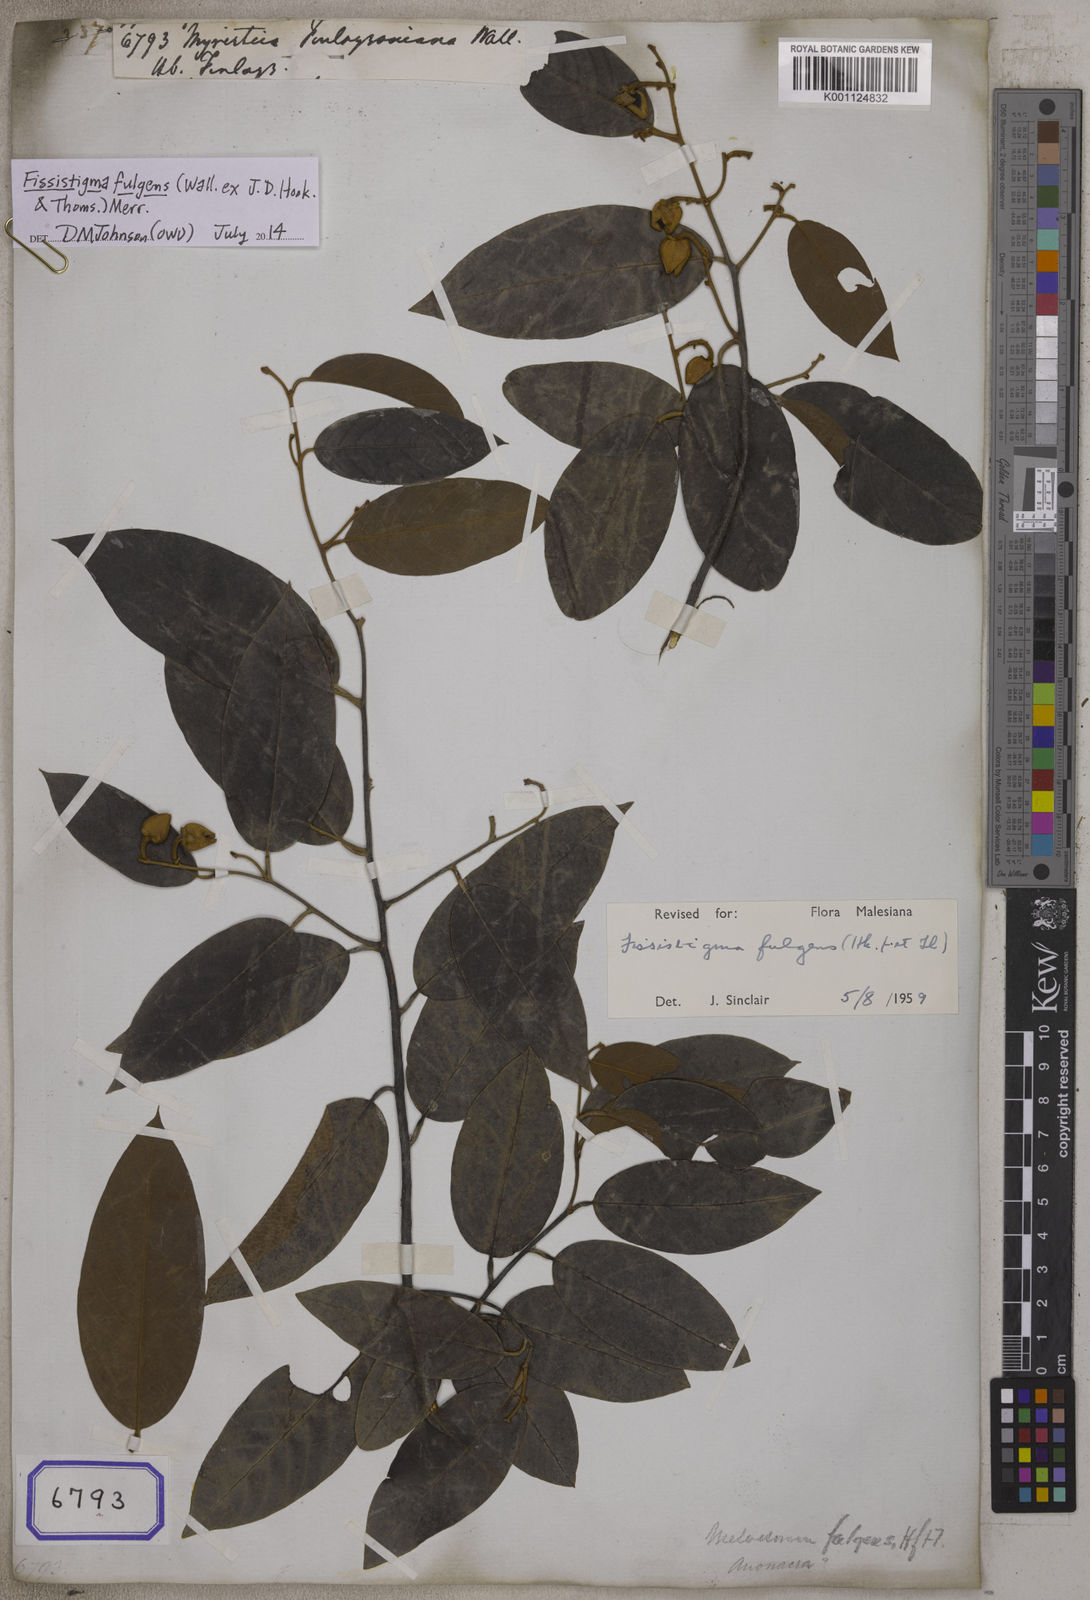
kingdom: Plantae
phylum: Tracheophyta
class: Magnoliopsida
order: Magnoliales
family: Annonaceae
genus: Fissistigma
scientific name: Fissistigma fulgens
